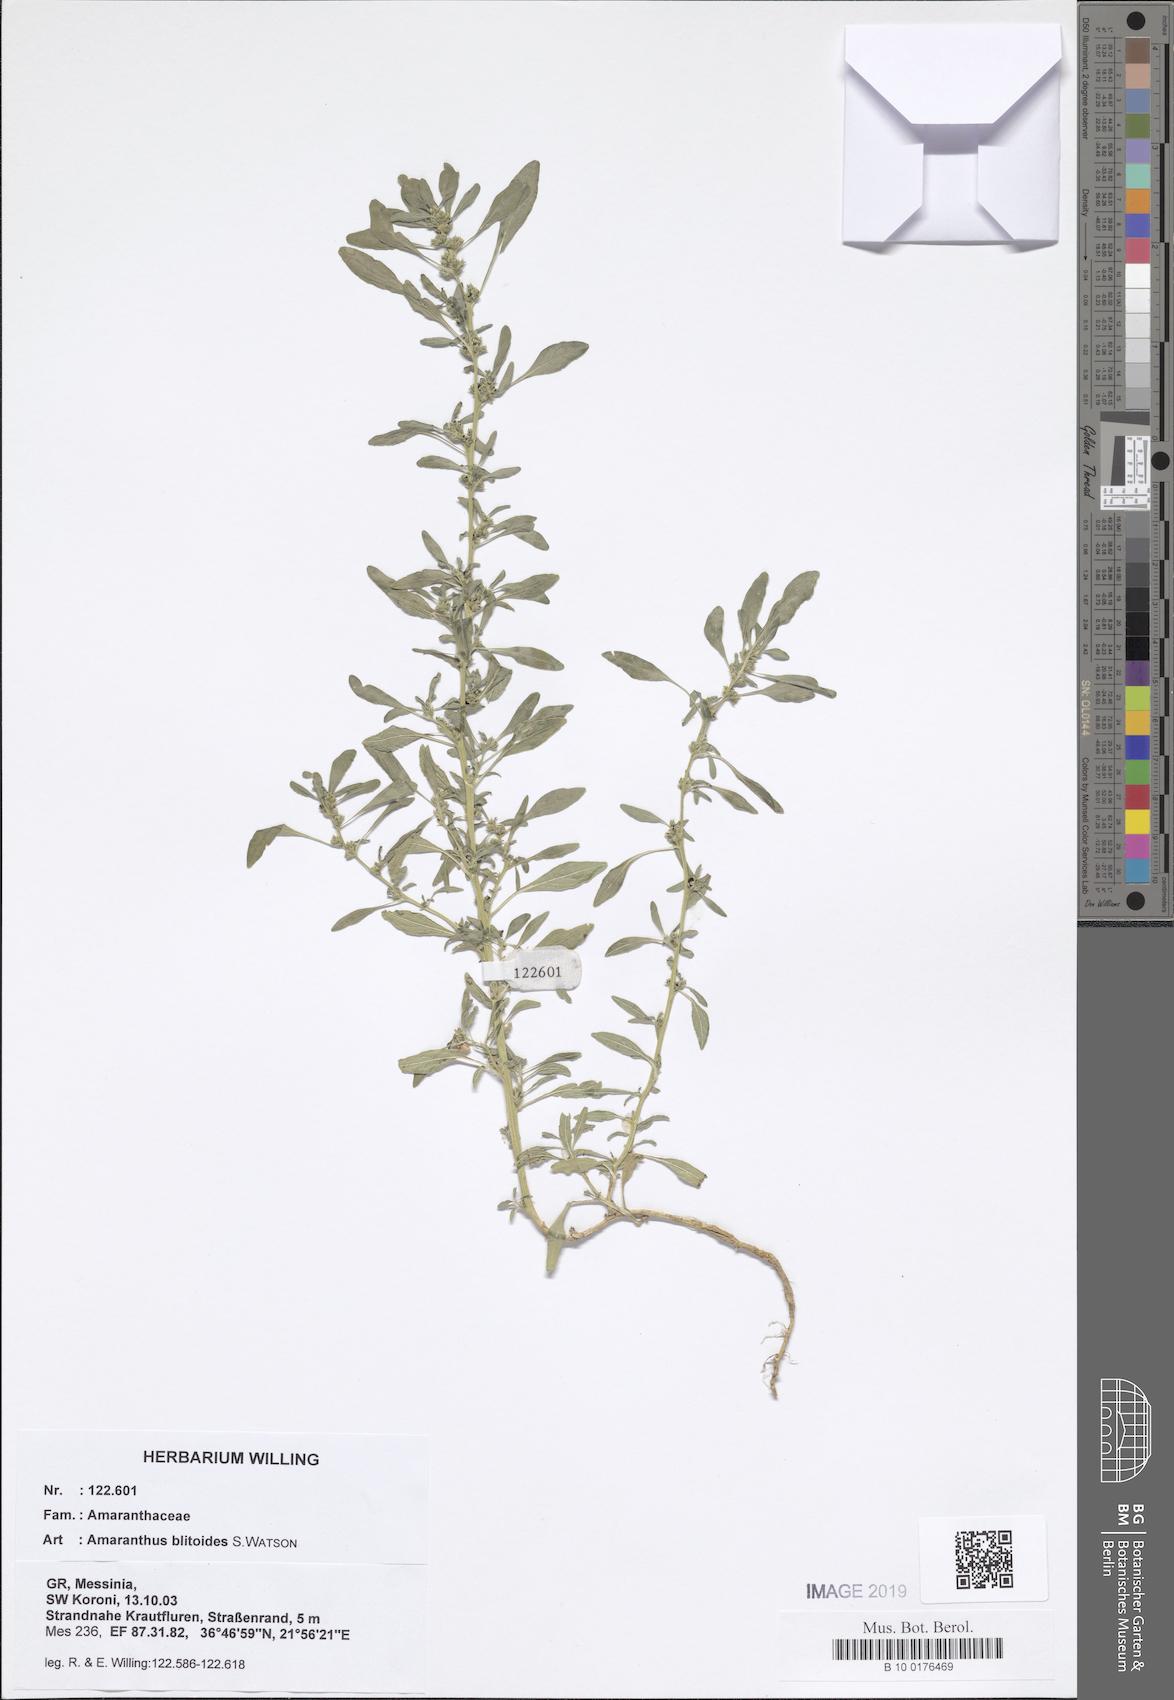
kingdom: Plantae
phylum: Tracheophyta
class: Magnoliopsida
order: Caryophyllales
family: Amaranthaceae
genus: Amaranthus
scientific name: Amaranthus blitoides
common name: Prostrate pigweed
